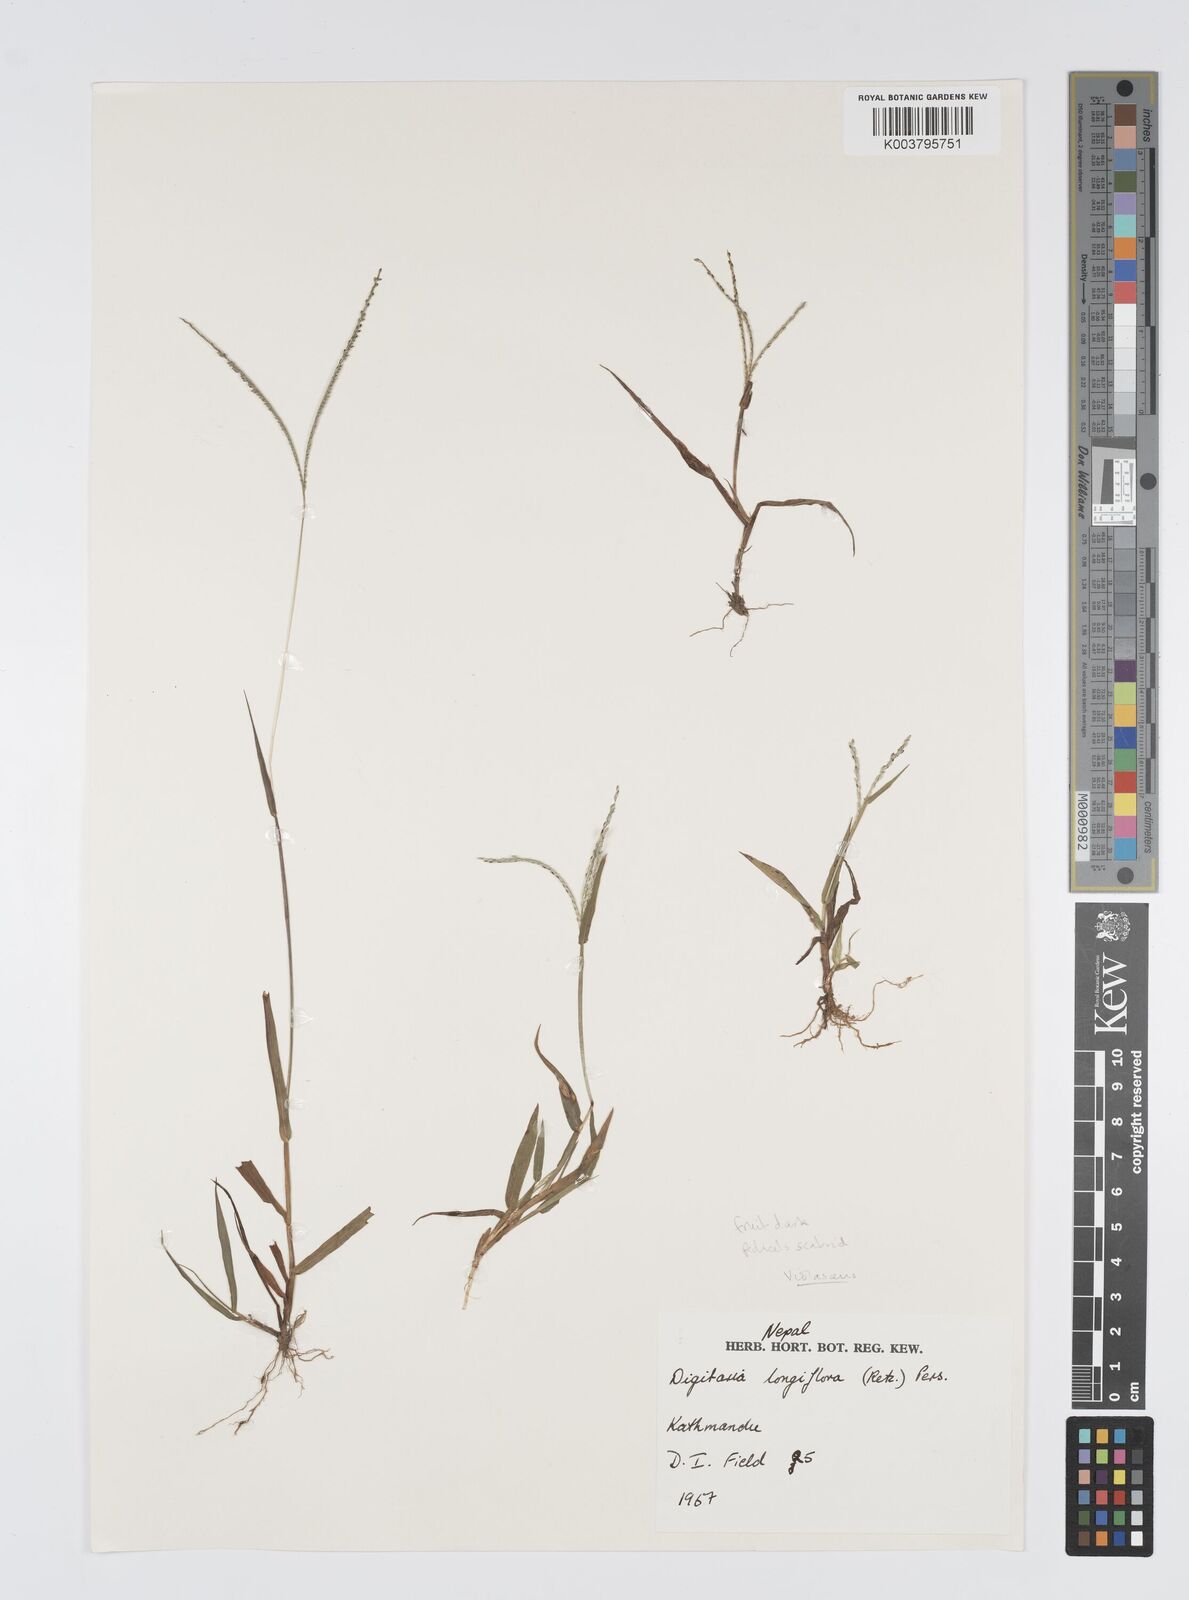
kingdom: Plantae
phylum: Tracheophyta
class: Liliopsida
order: Poales
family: Poaceae
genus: Digitaria
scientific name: Digitaria violascens
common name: Violet crabgrass
